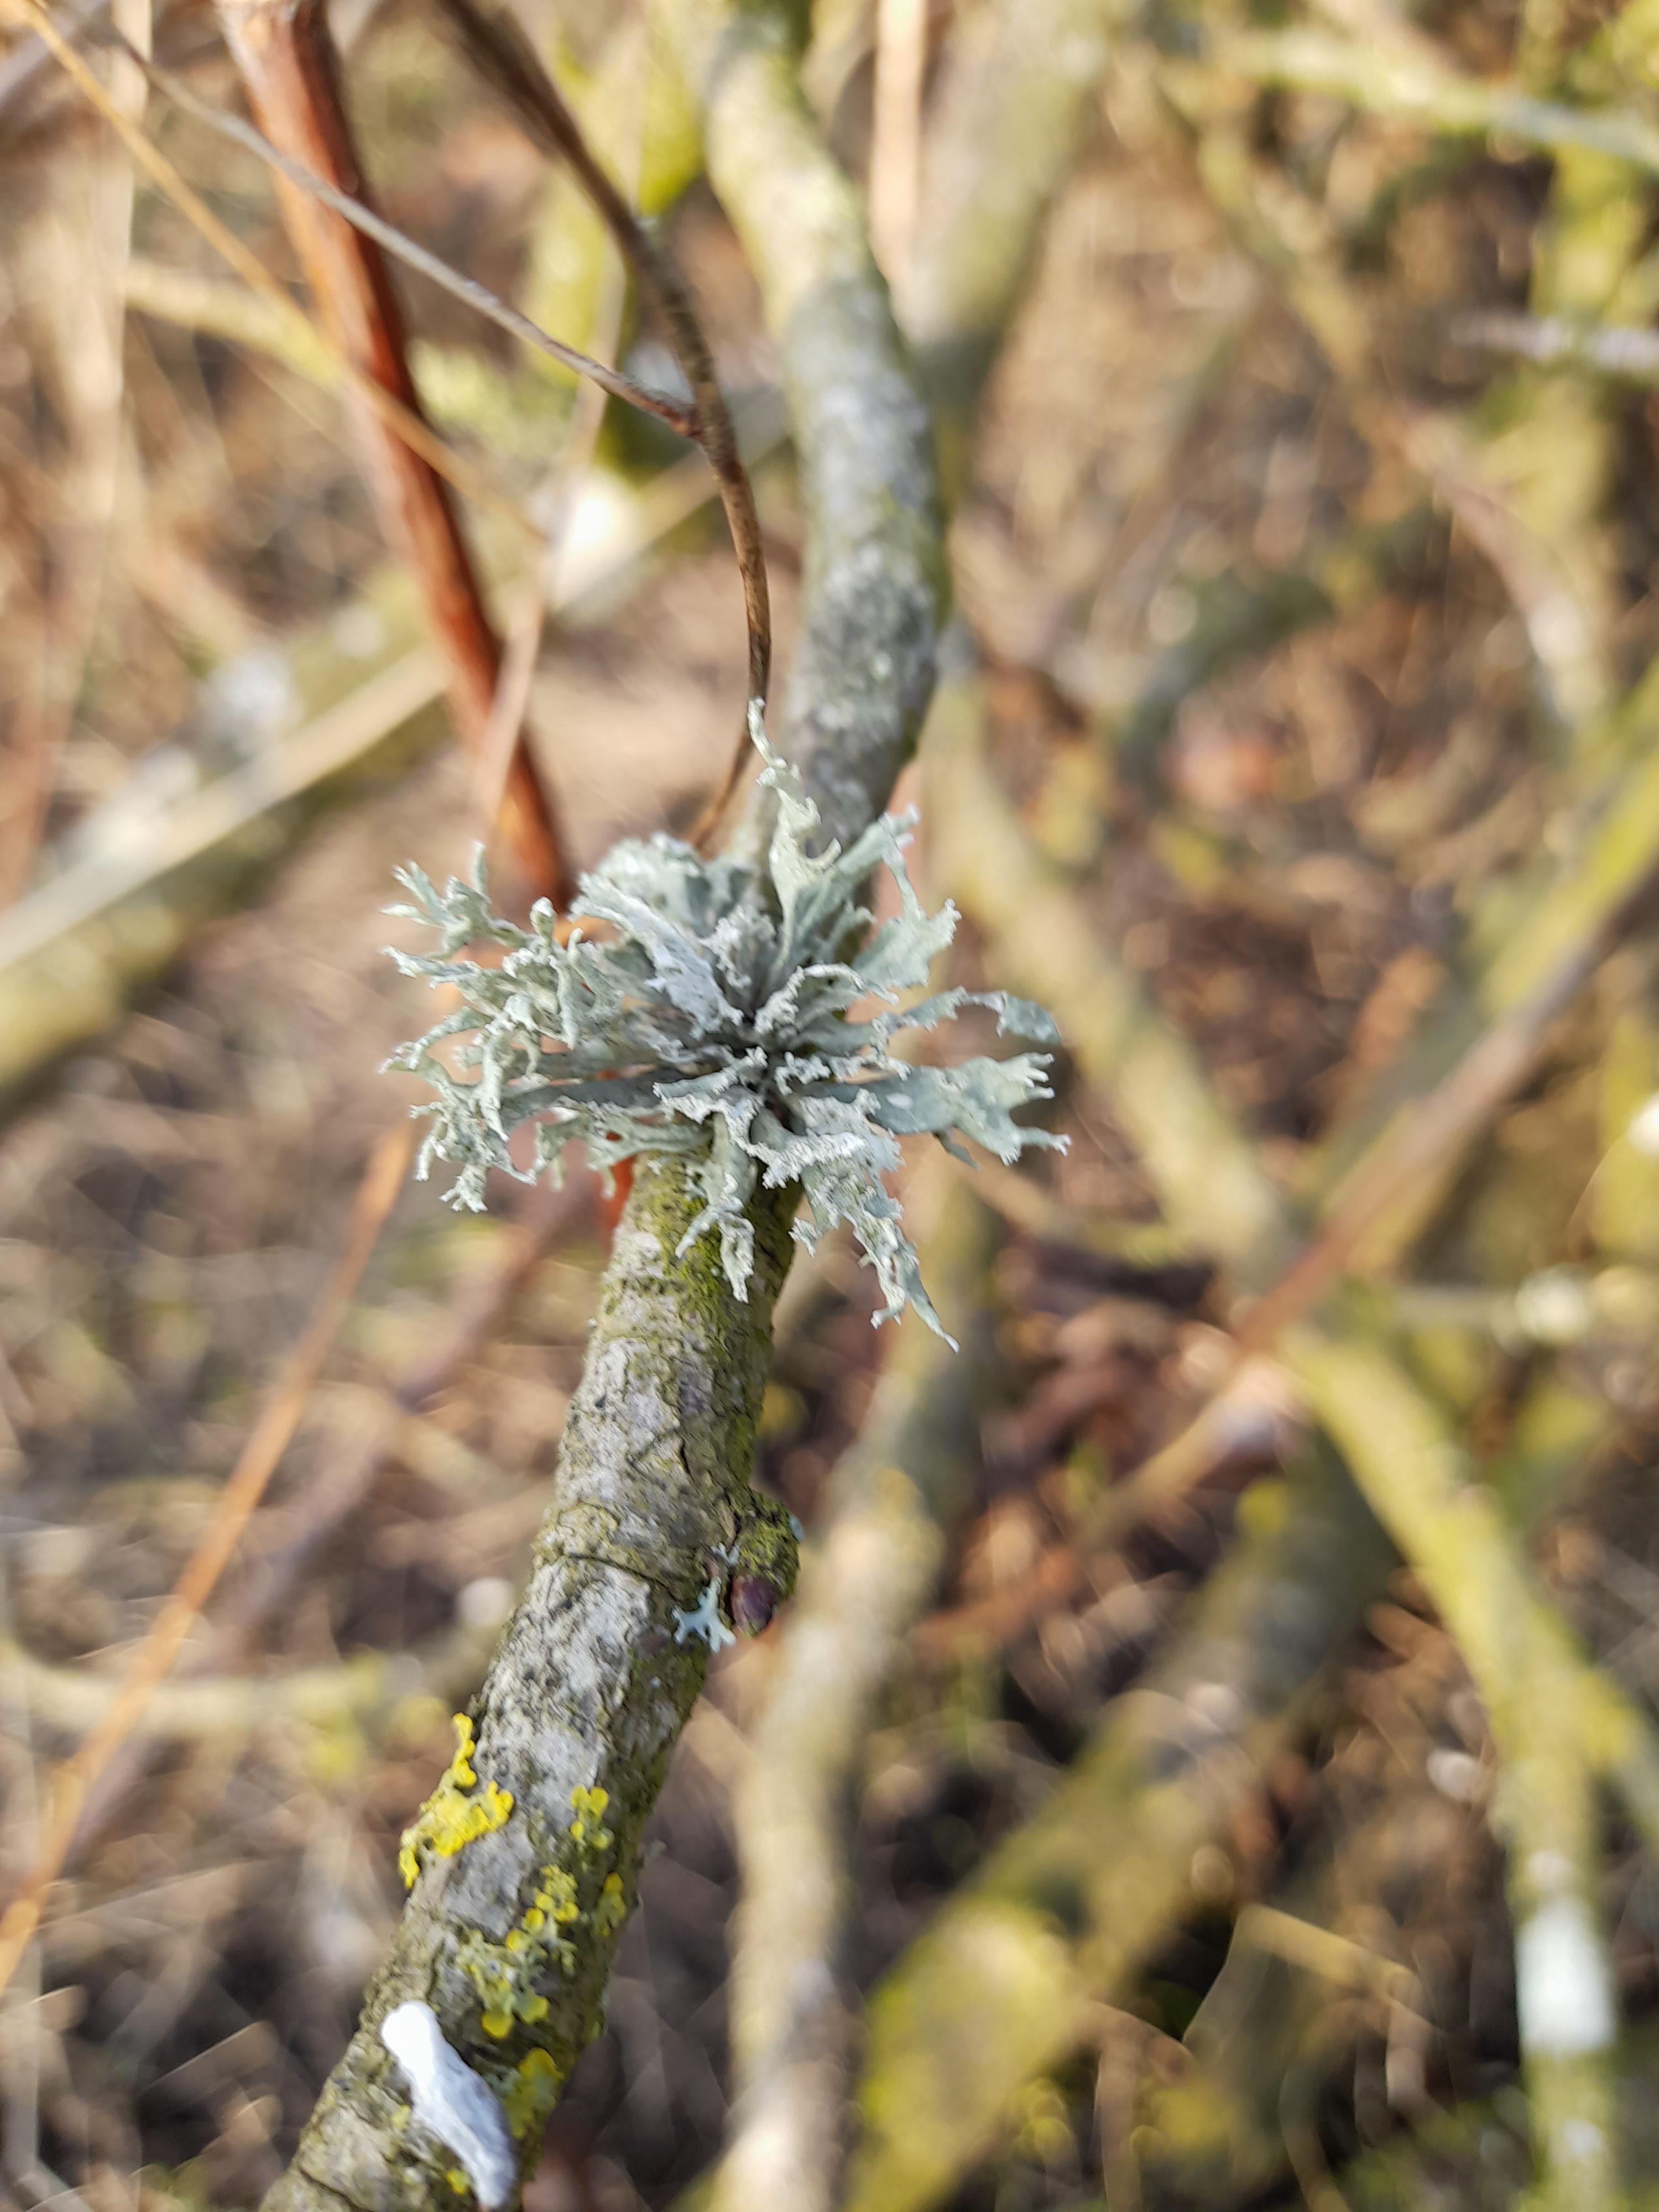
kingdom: Fungi
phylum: Ascomycota
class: Lecanoromycetes
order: Lecanorales
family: Parmeliaceae
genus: Lichen
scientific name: Lichen
